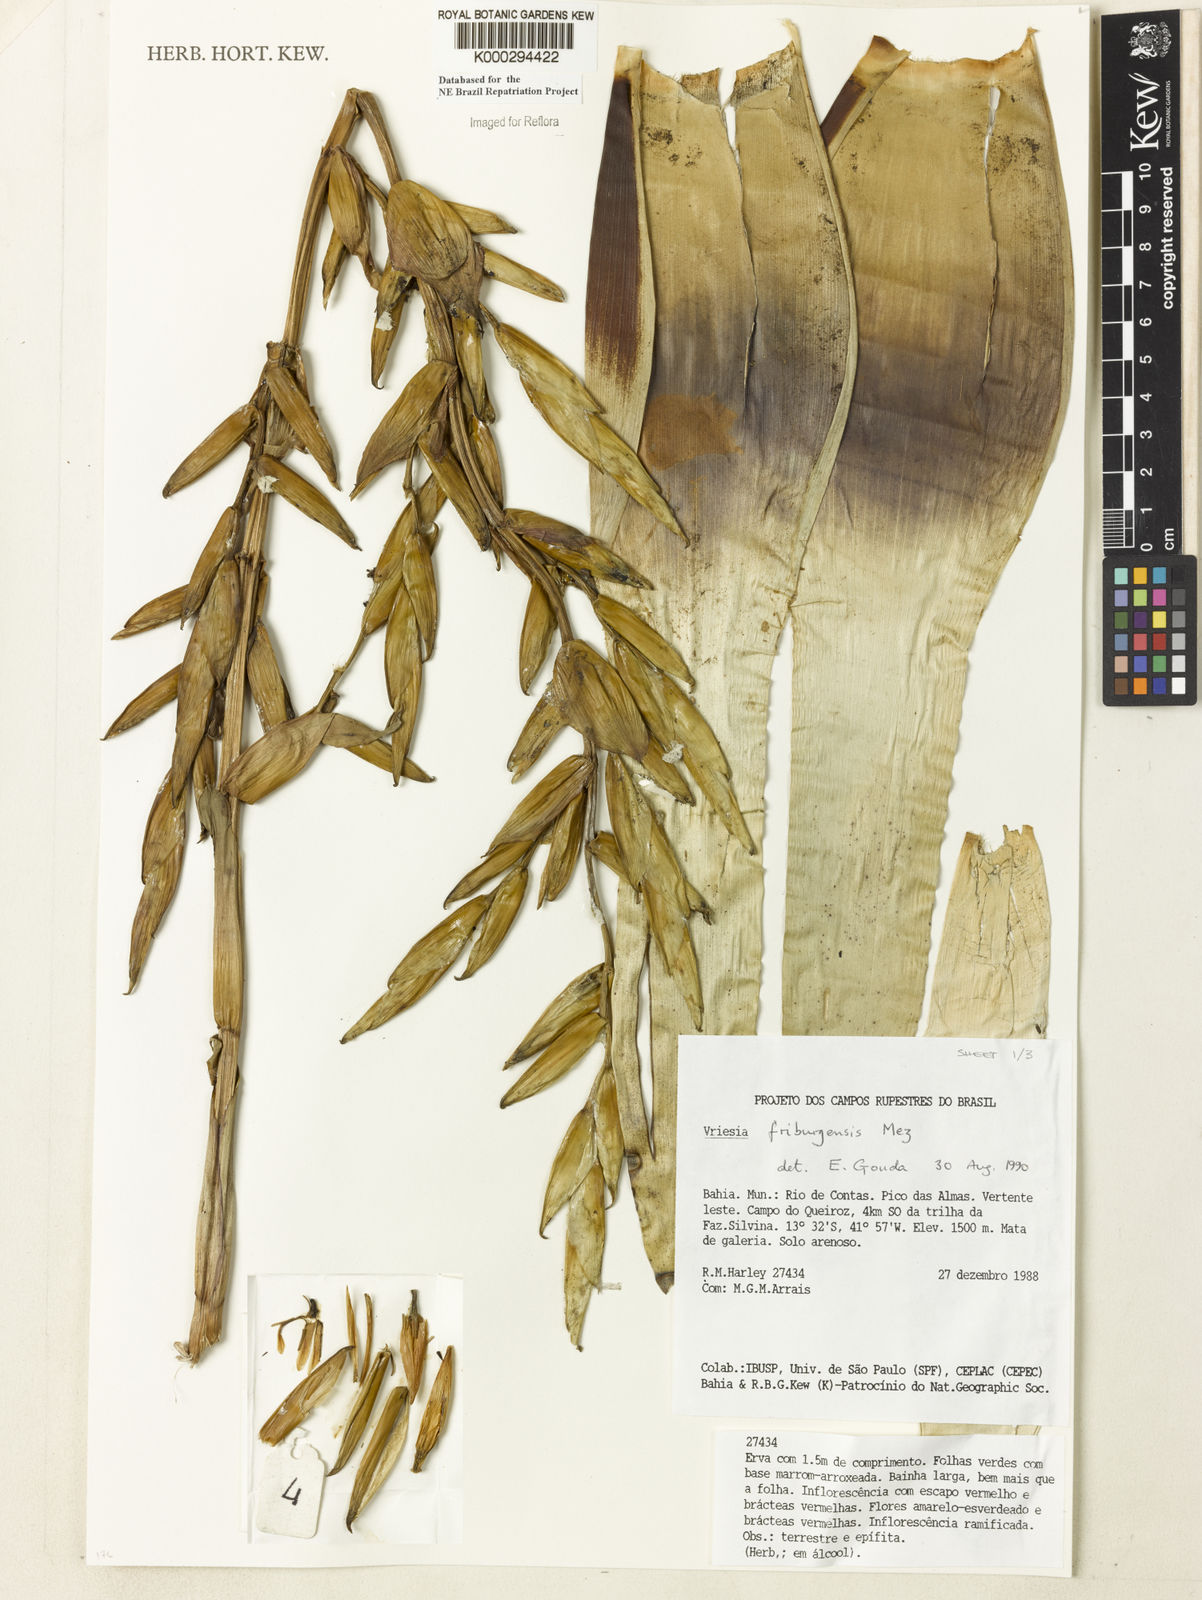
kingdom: Plantae
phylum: Tracheophyta
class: Liliopsida
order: Poales
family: Bromeliaceae
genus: Vriesea
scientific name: Vriesea friburgensis
